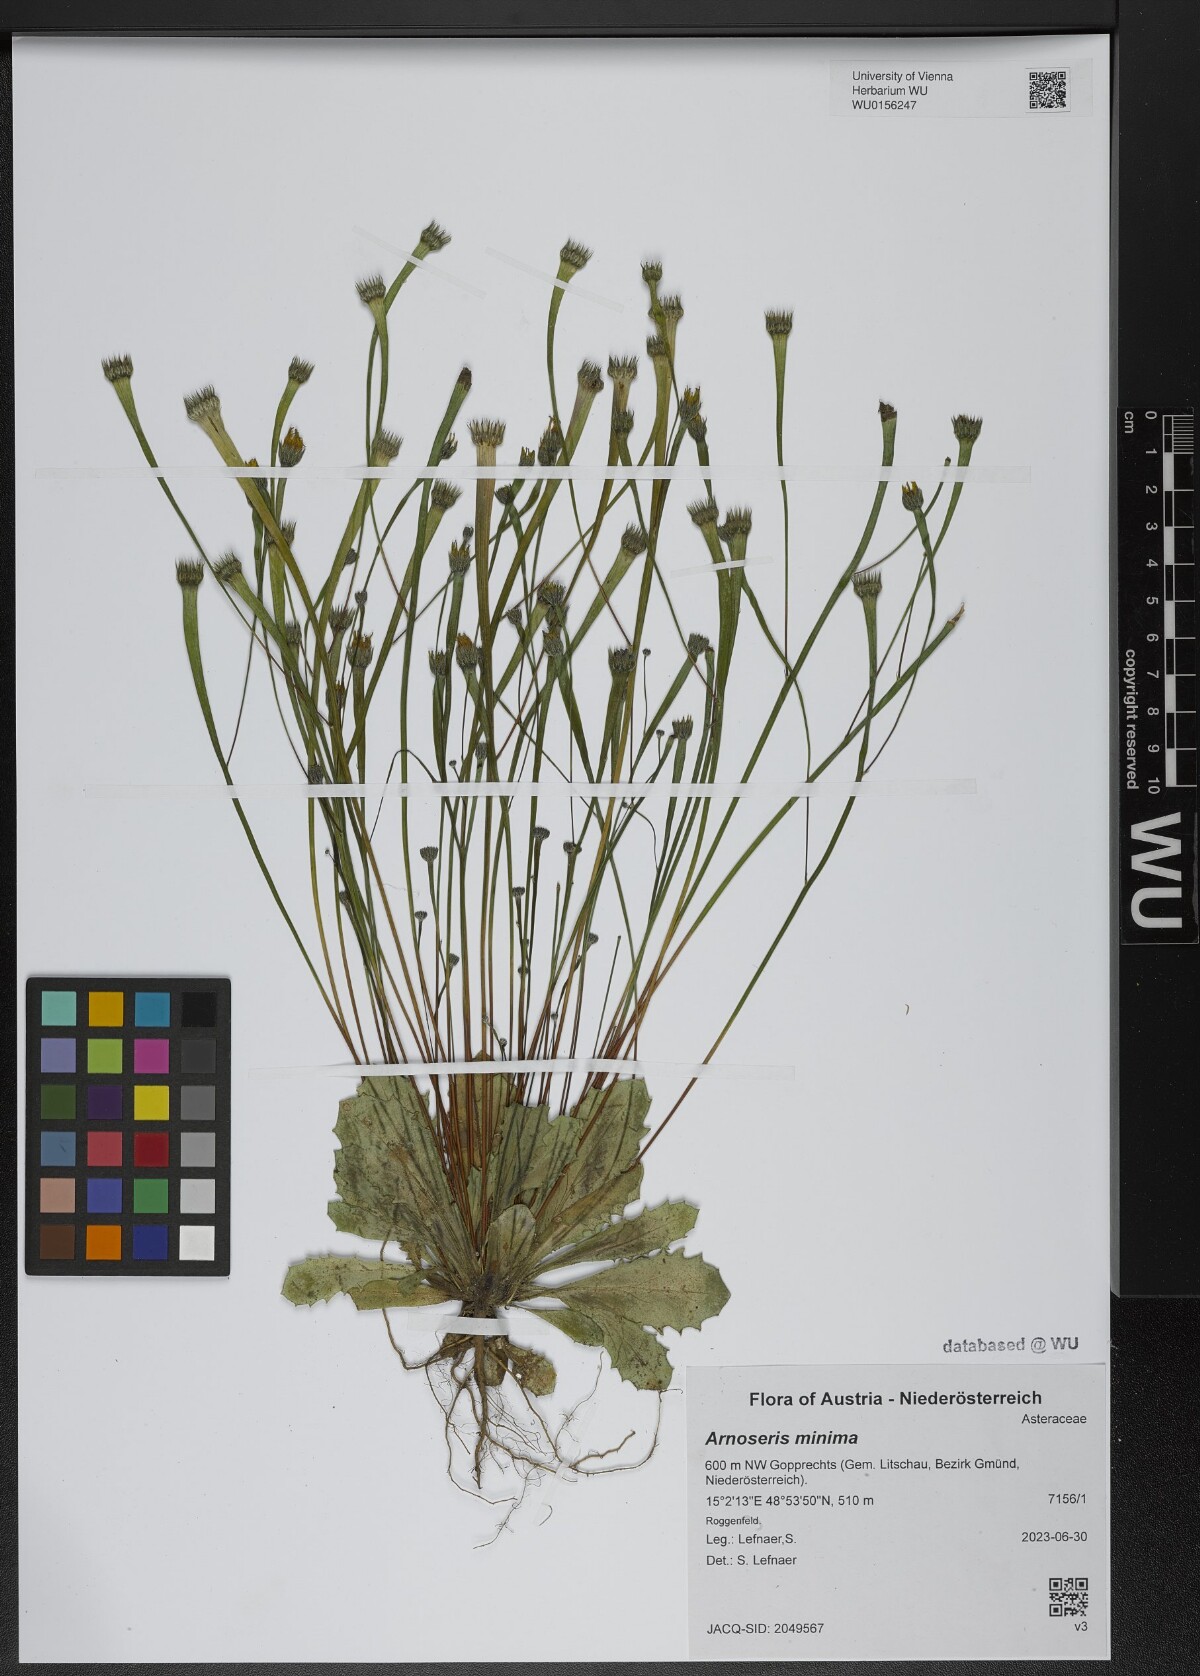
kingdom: Plantae
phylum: Tracheophyta
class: Magnoliopsida
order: Asterales
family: Asteraceae
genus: Arnoseris
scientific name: Arnoseris minima
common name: Lamb's succory
